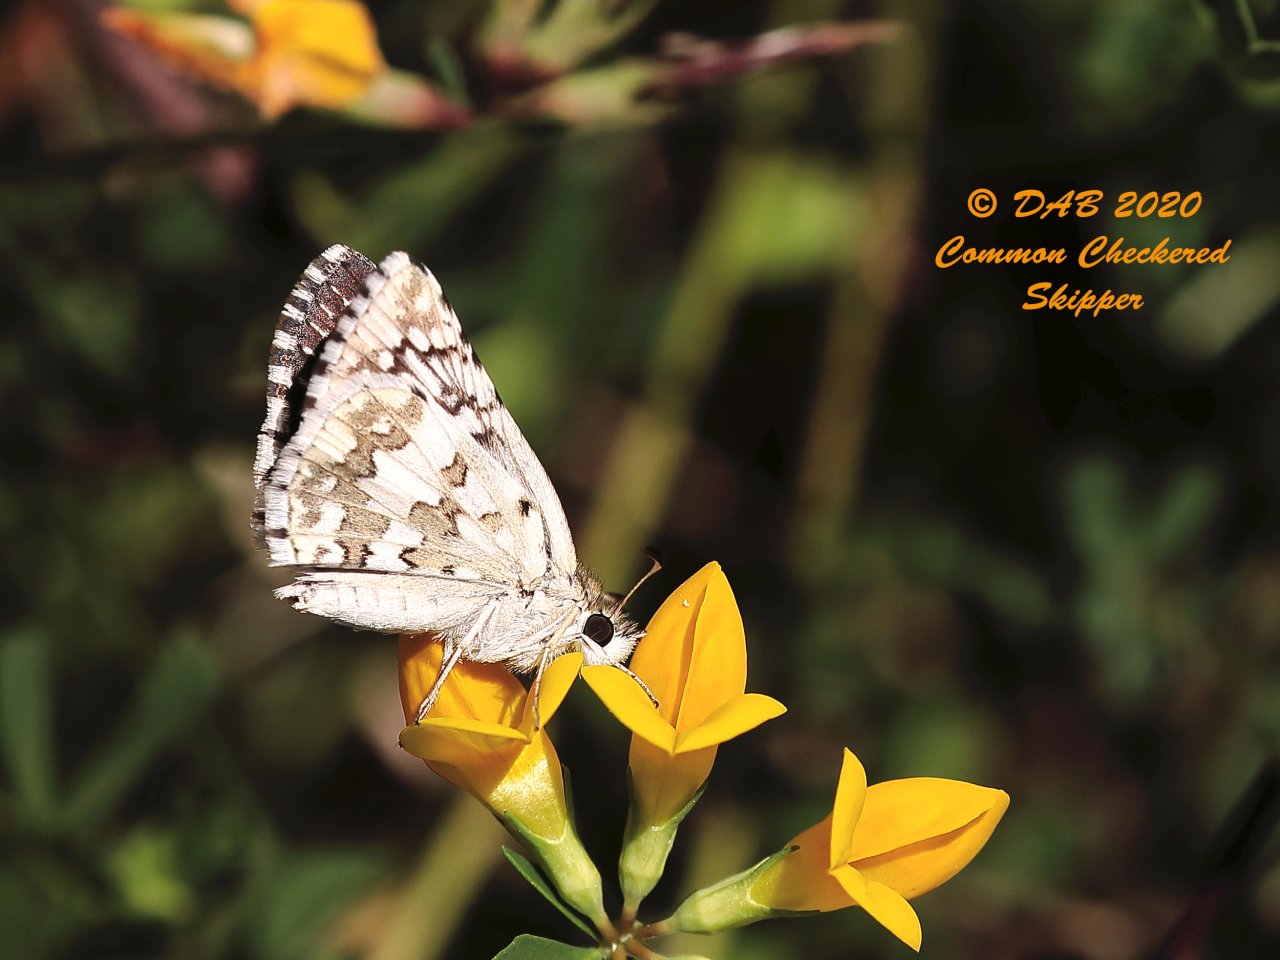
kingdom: Animalia
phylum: Arthropoda
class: Insecta
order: Lepidoptera
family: Hesperiidae
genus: Pyrgus
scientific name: Pyrgus communis
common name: Common Checkered-Skipper
